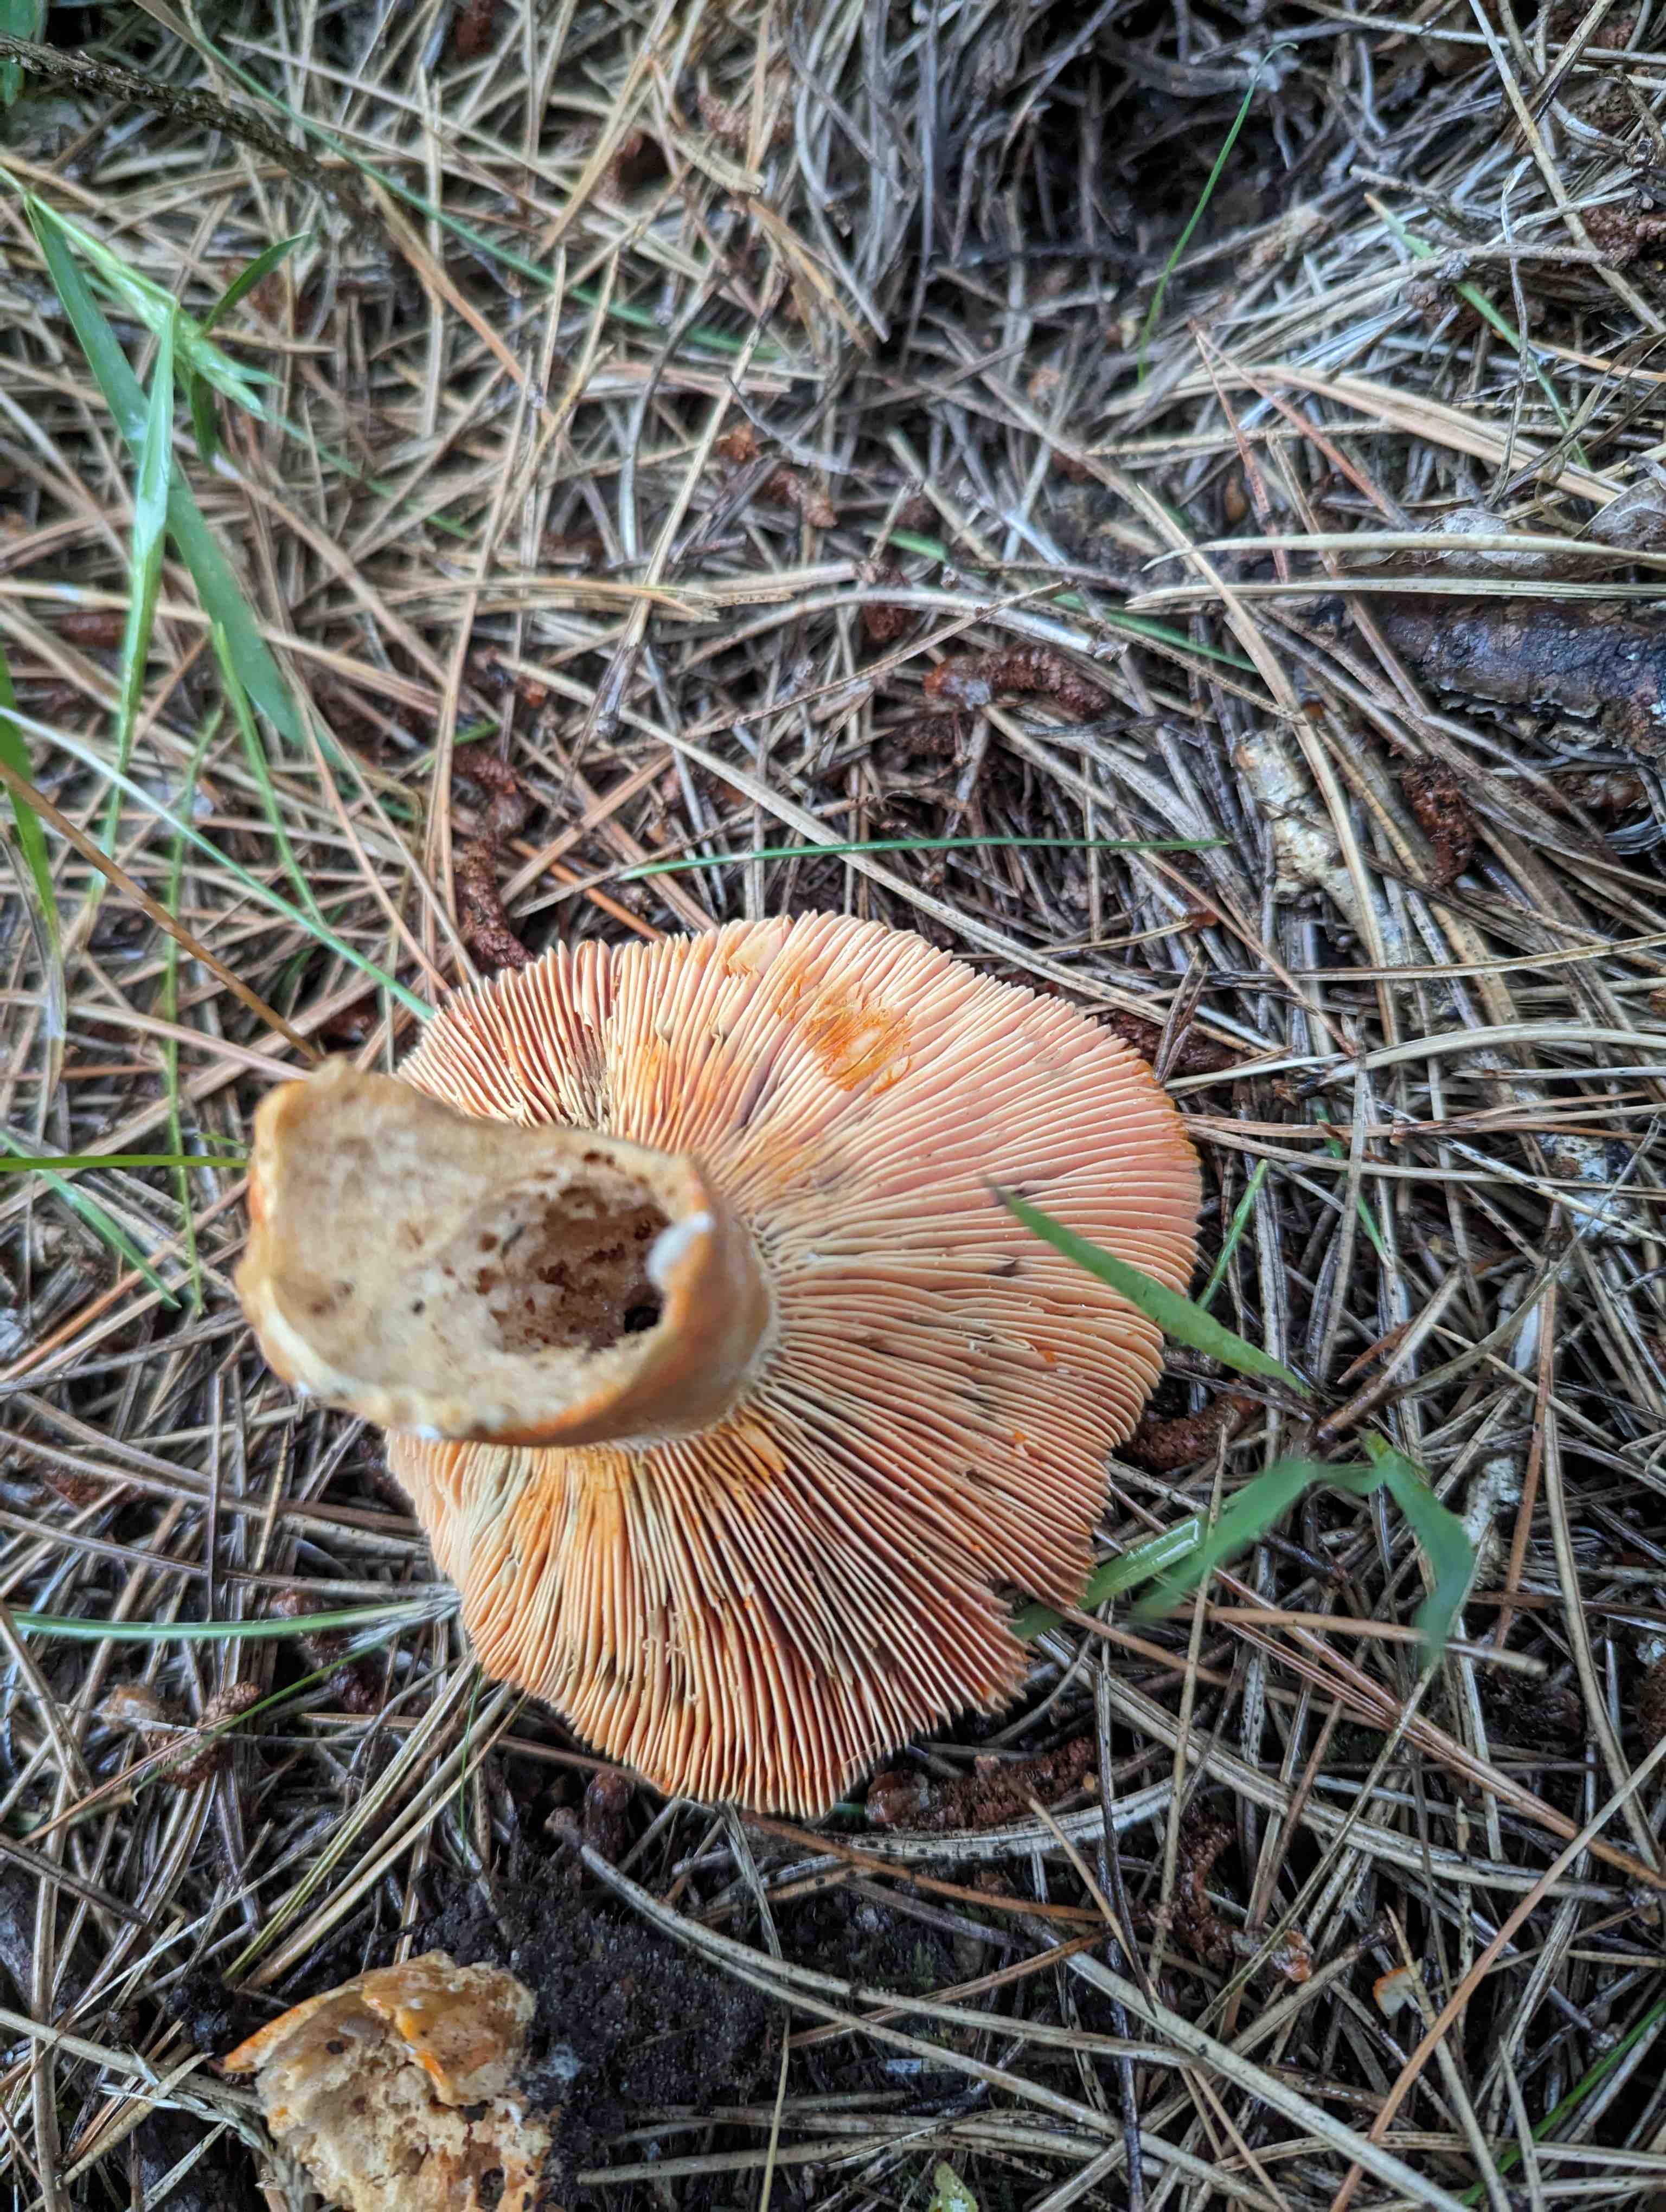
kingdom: Fungi
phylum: Basidiomycota
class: Agaricomycetes
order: Russulales
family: Russulaceae
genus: Lactarius
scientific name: Lactarius quieticolor
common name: tvefarvet mælkehat
